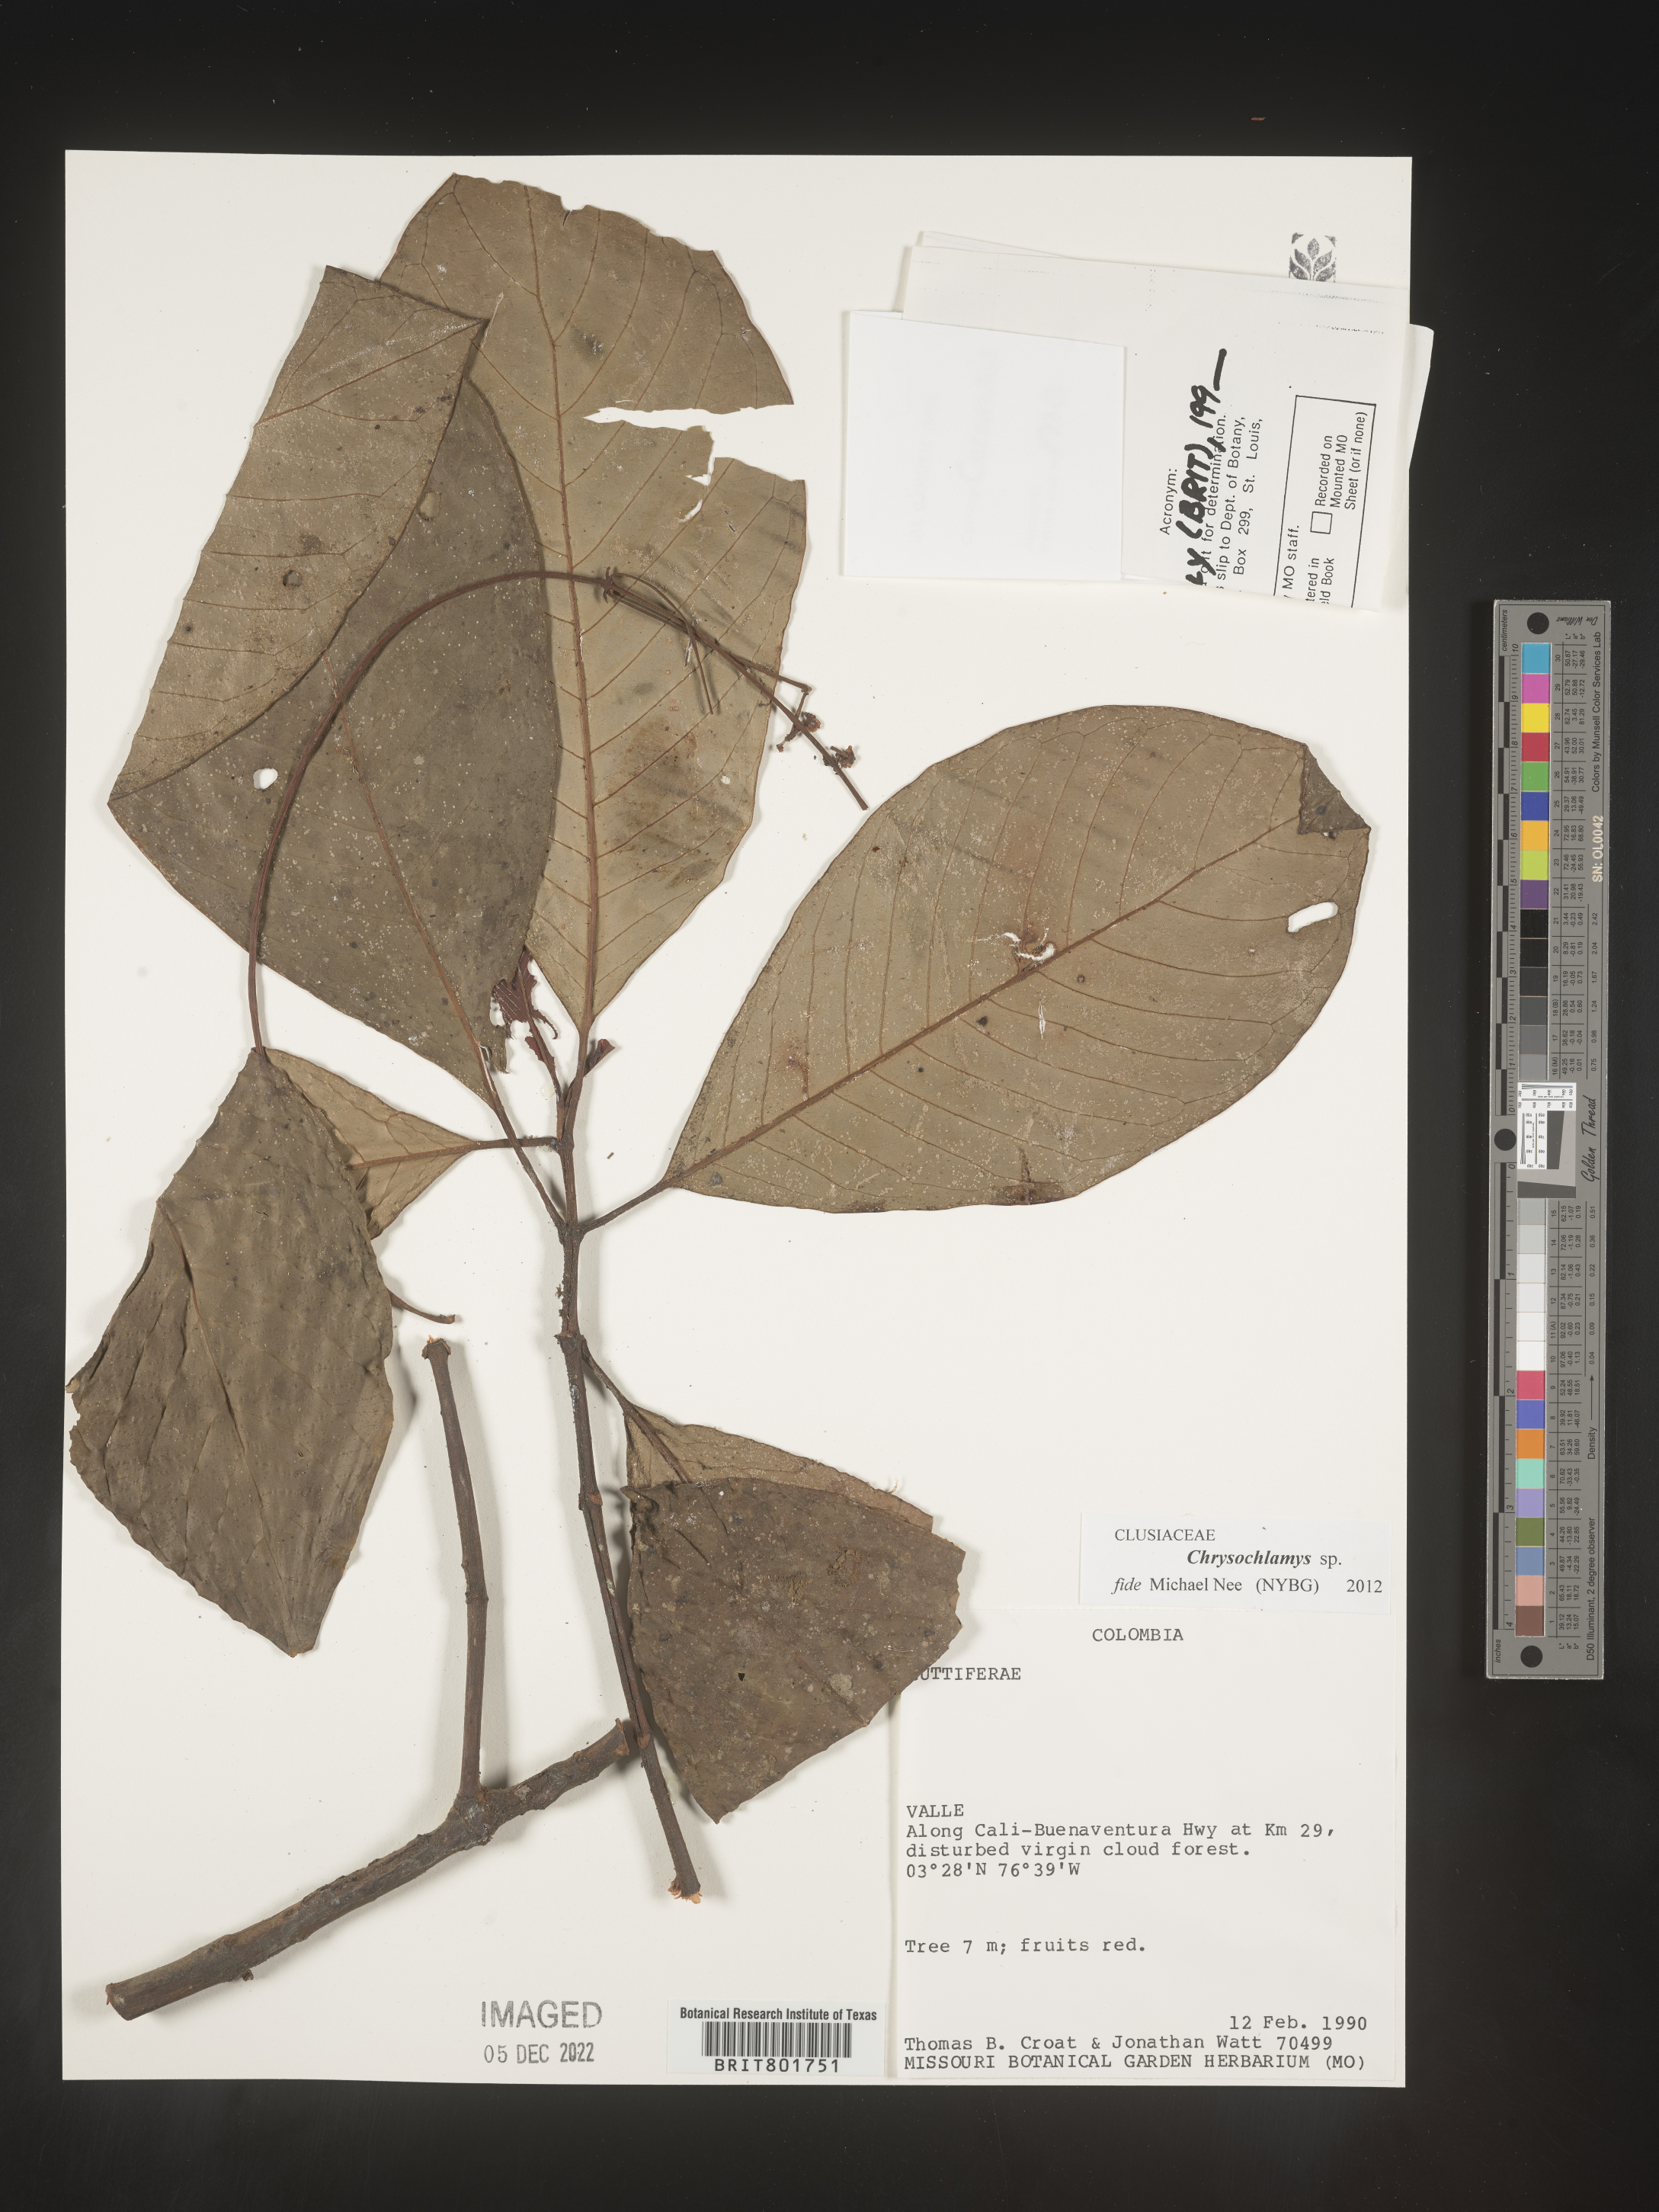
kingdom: Plantae
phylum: Tracheophyta
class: Magnoliopsida
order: Malpighiales
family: Clusiaceae
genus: Chrysochlamys
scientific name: Chrysochlamys
